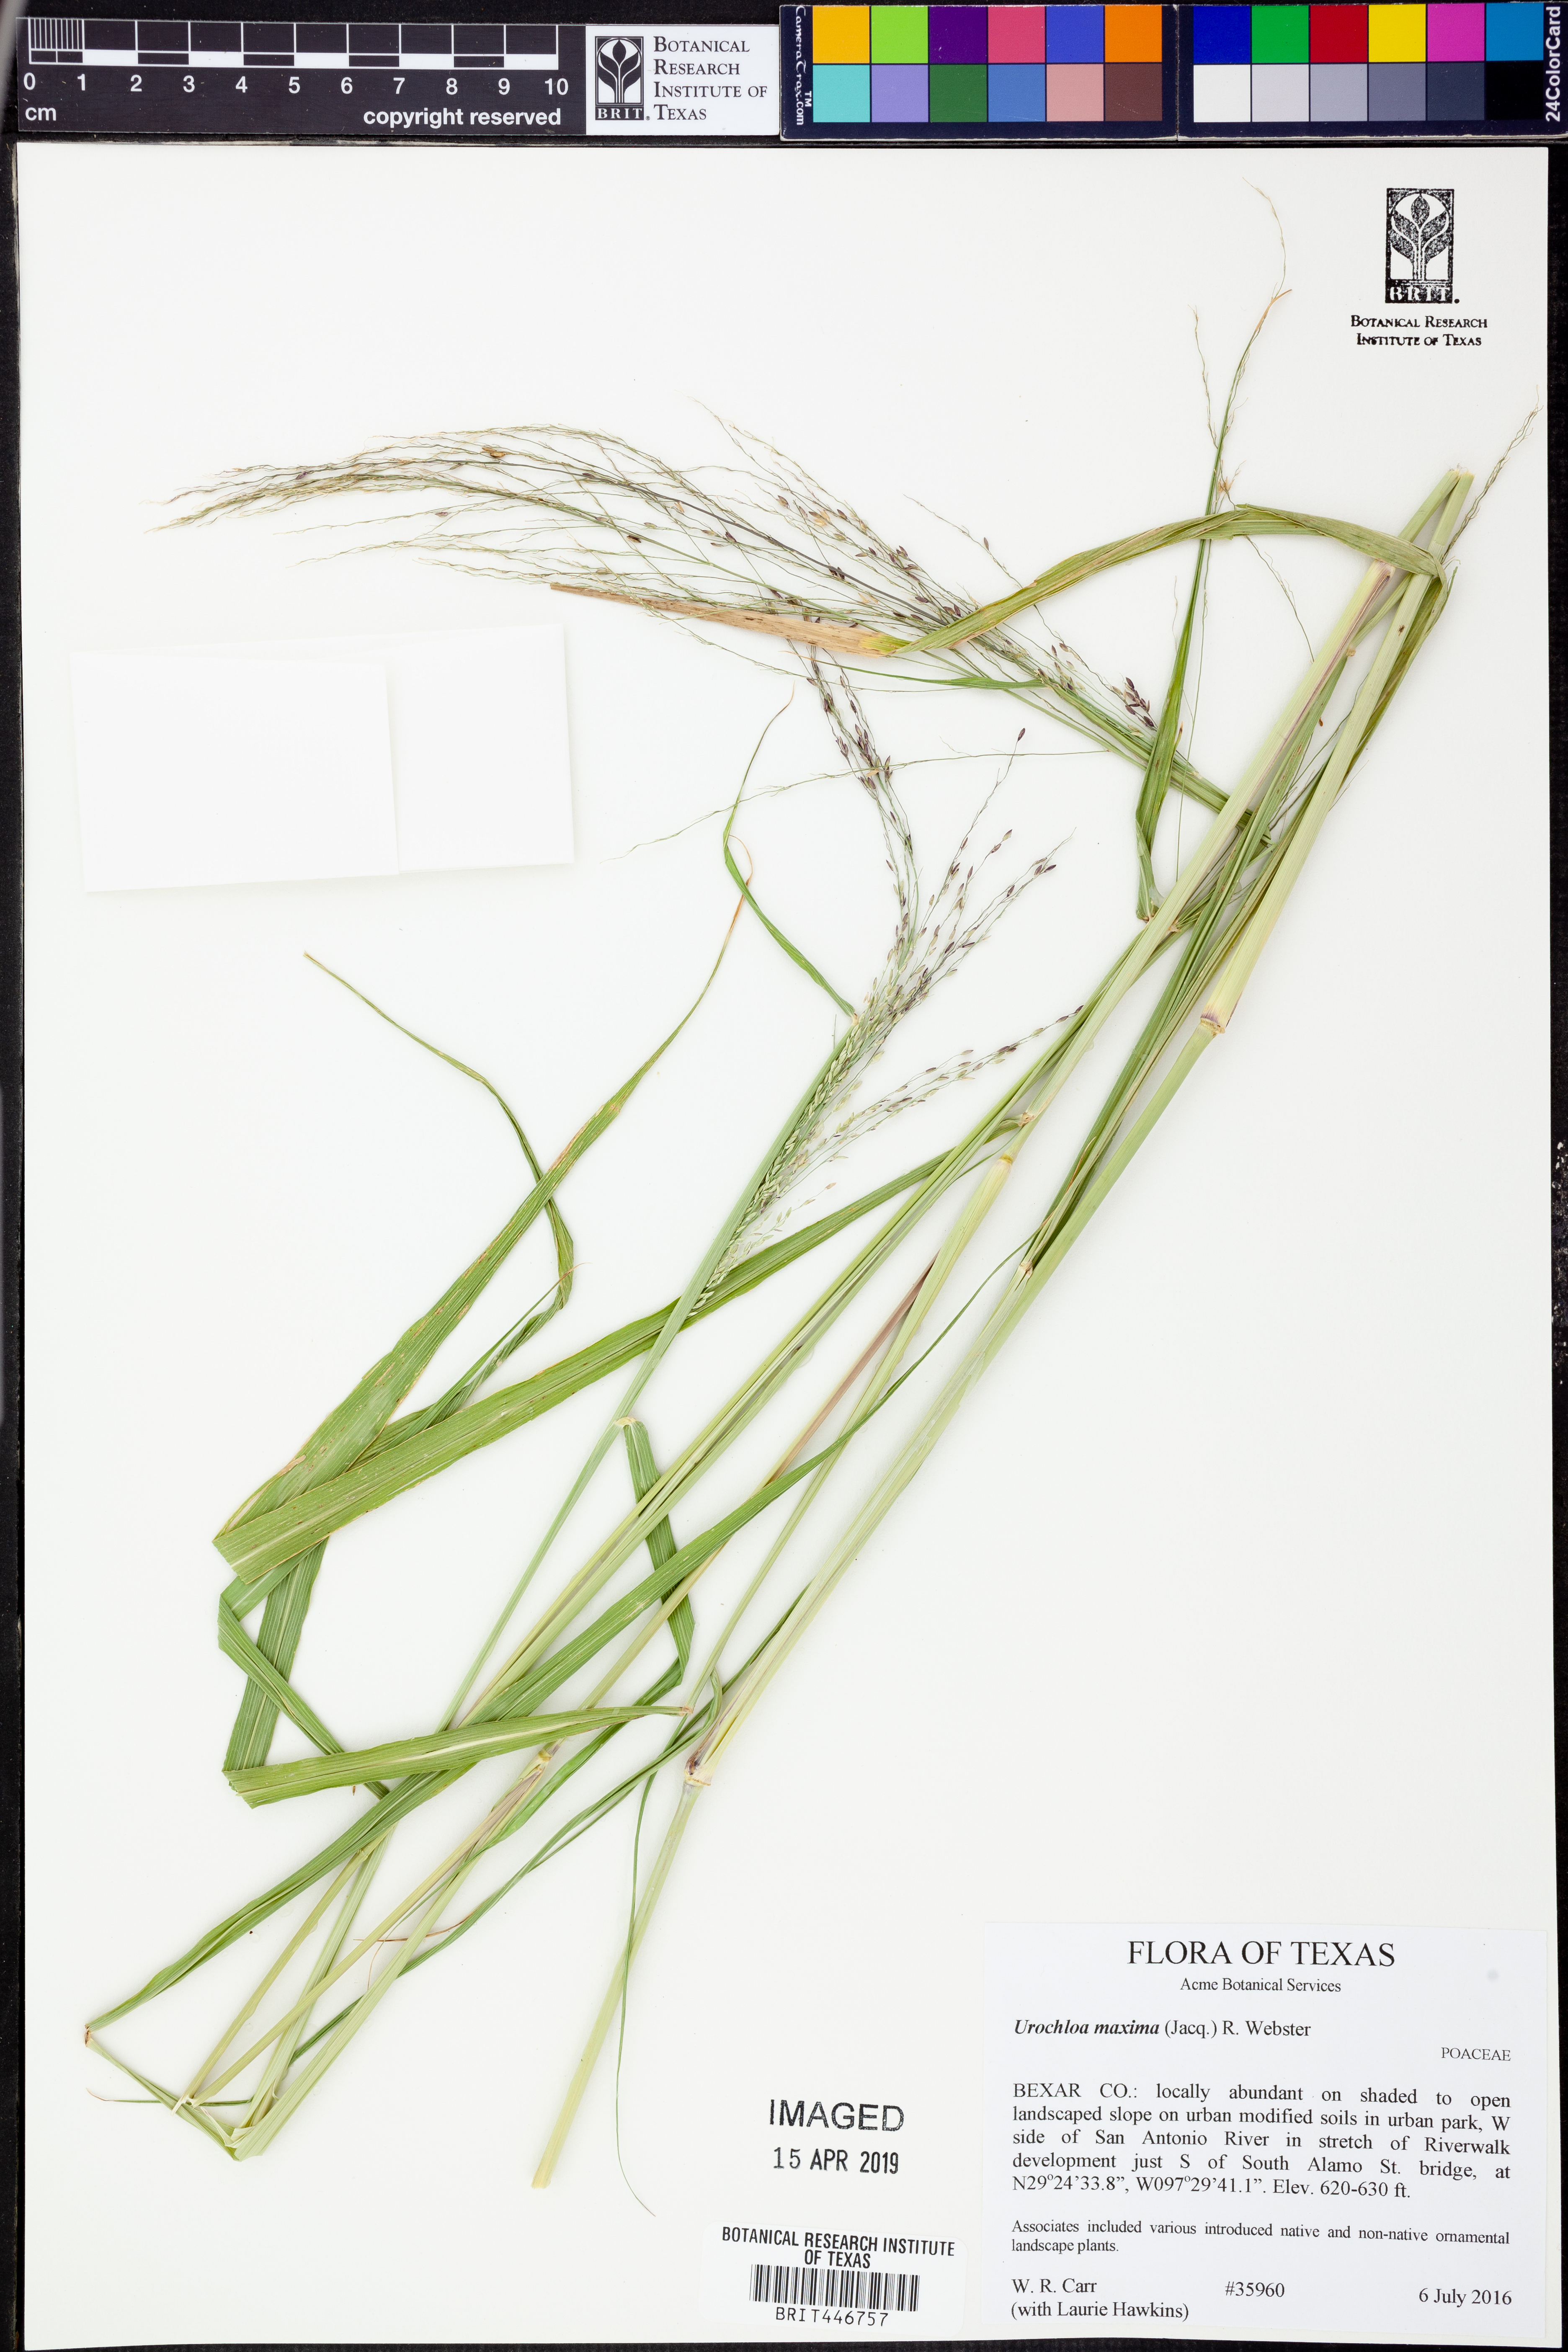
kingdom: Plantae
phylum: Tracheophyta
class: Liliopsida
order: Poales
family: Poaceae
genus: Megathyrsus
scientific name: Megathyrsus maximus
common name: Guineagrass
